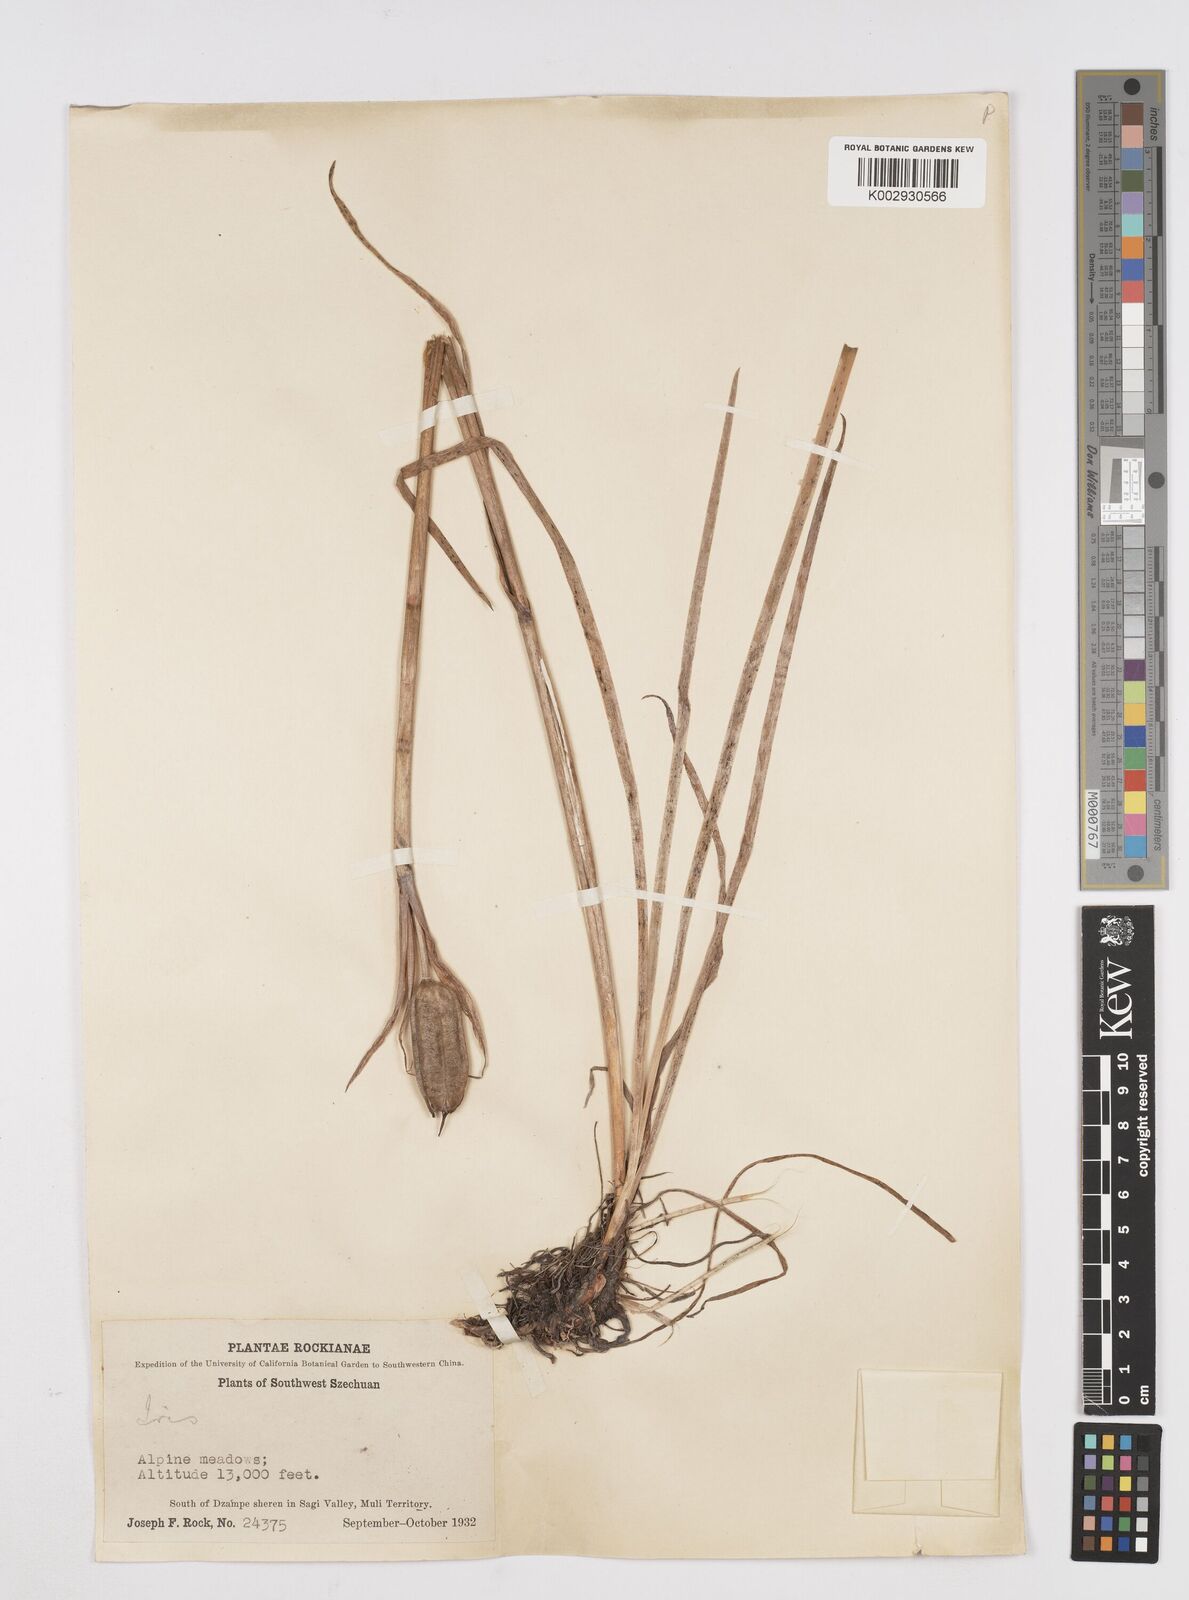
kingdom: Plantae
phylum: Tracheophyta
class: Liliopsida
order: Asparagales
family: Iridaceae
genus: Iris
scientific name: Iris bulleyana
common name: Southwest iris
